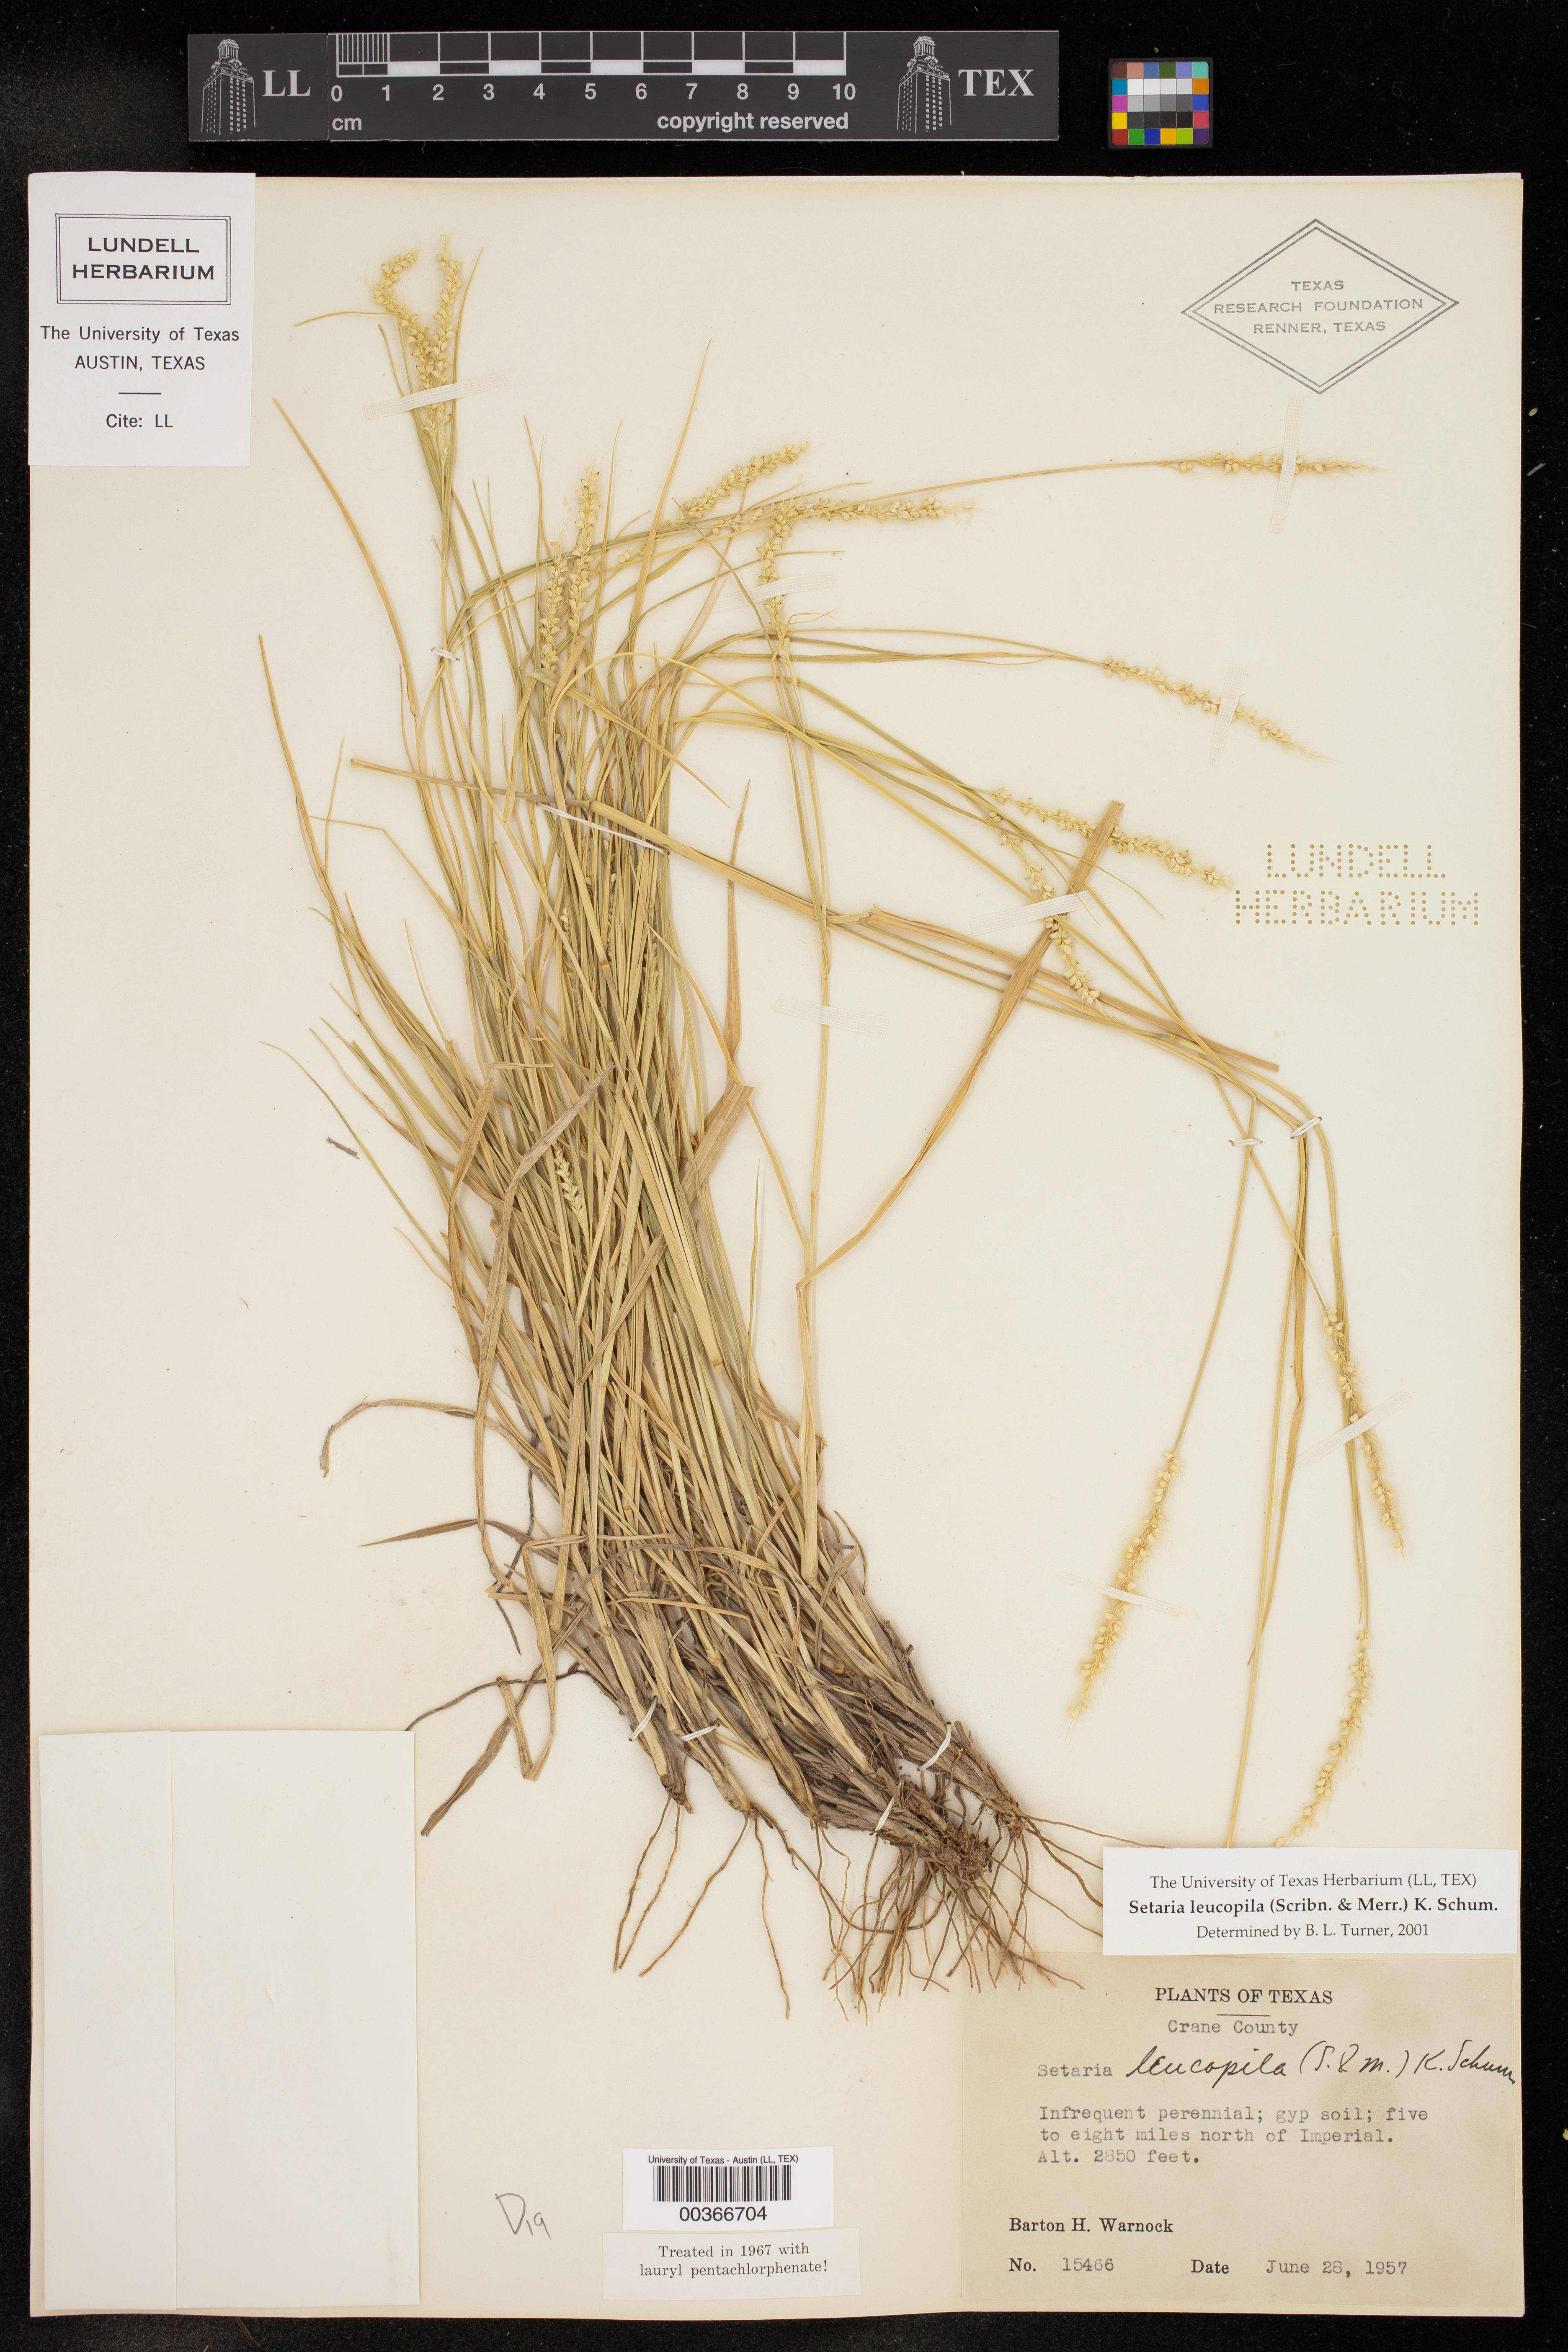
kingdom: Plantae
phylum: Tracheophyta
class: Liliopsida
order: Poales
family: Poaceae
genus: Setaria
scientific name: Setaria leucopila
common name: Plains bristle grass
